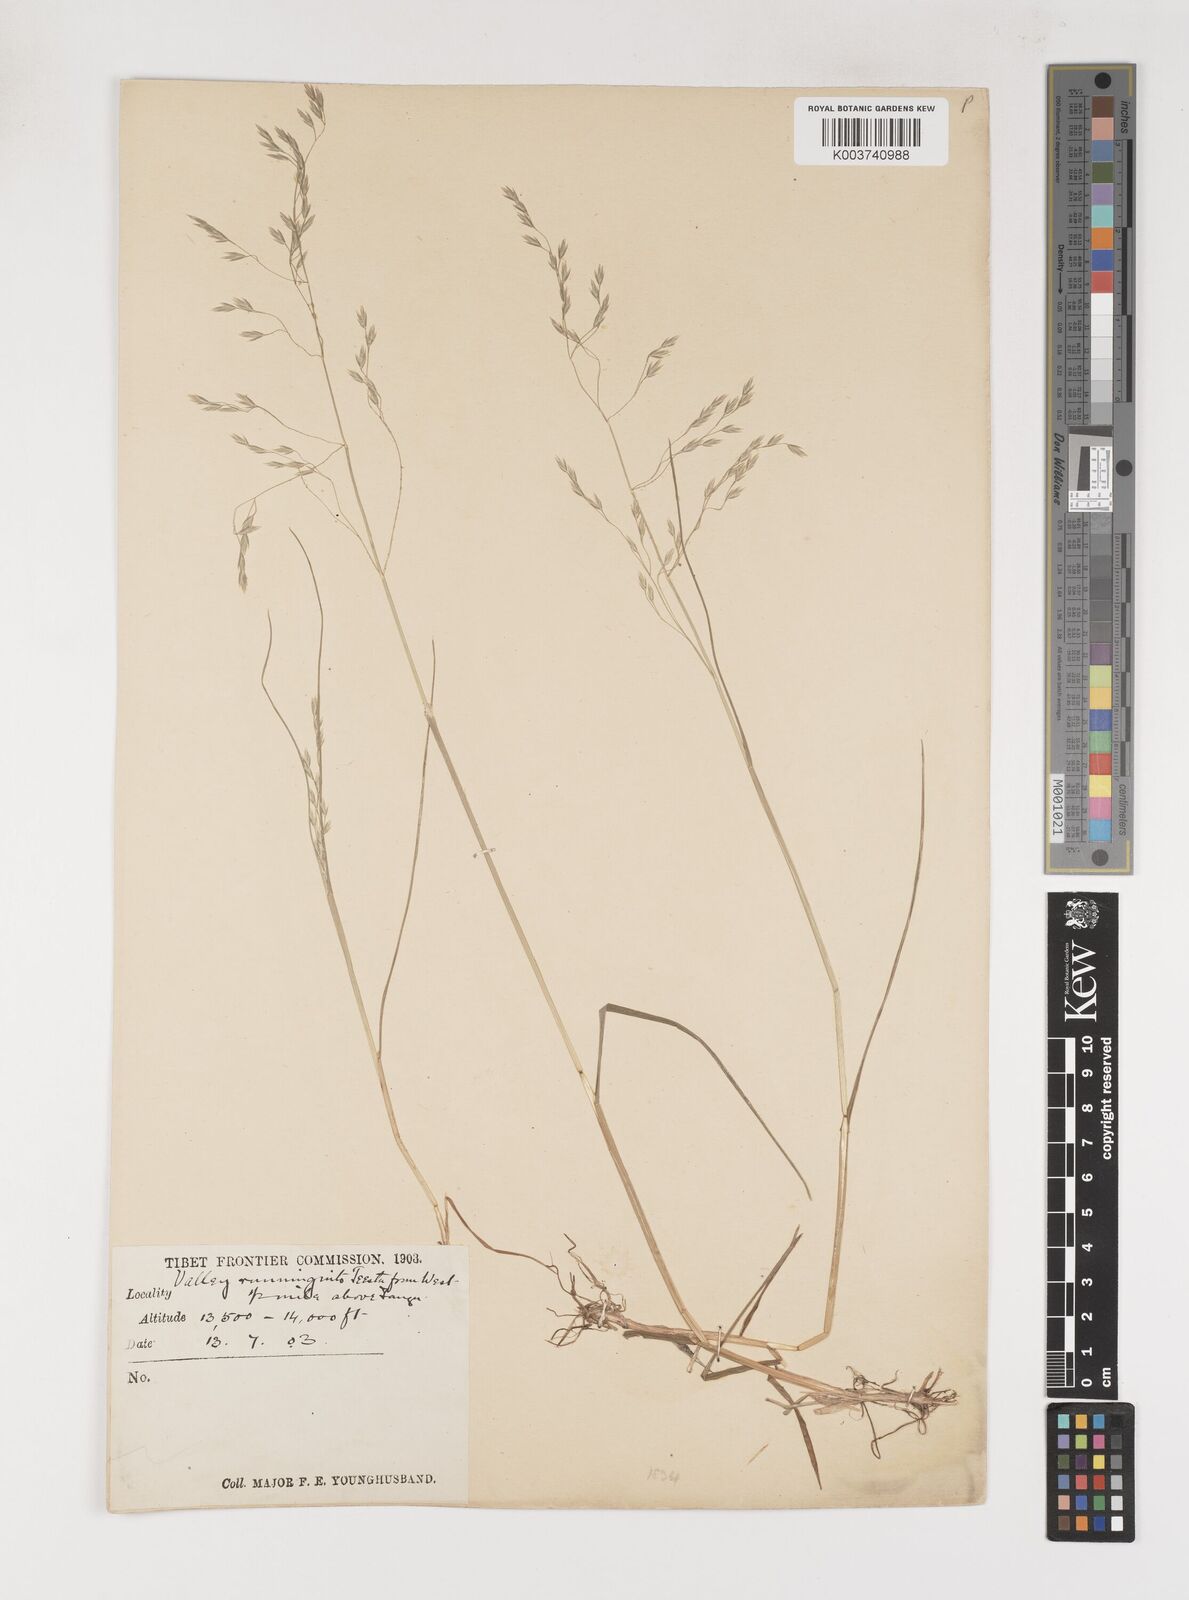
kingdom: Plantae
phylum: Tracheophyta
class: Liliopsida
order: Poales
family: Poaceae
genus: Poa
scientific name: Poa nitidespiculata
